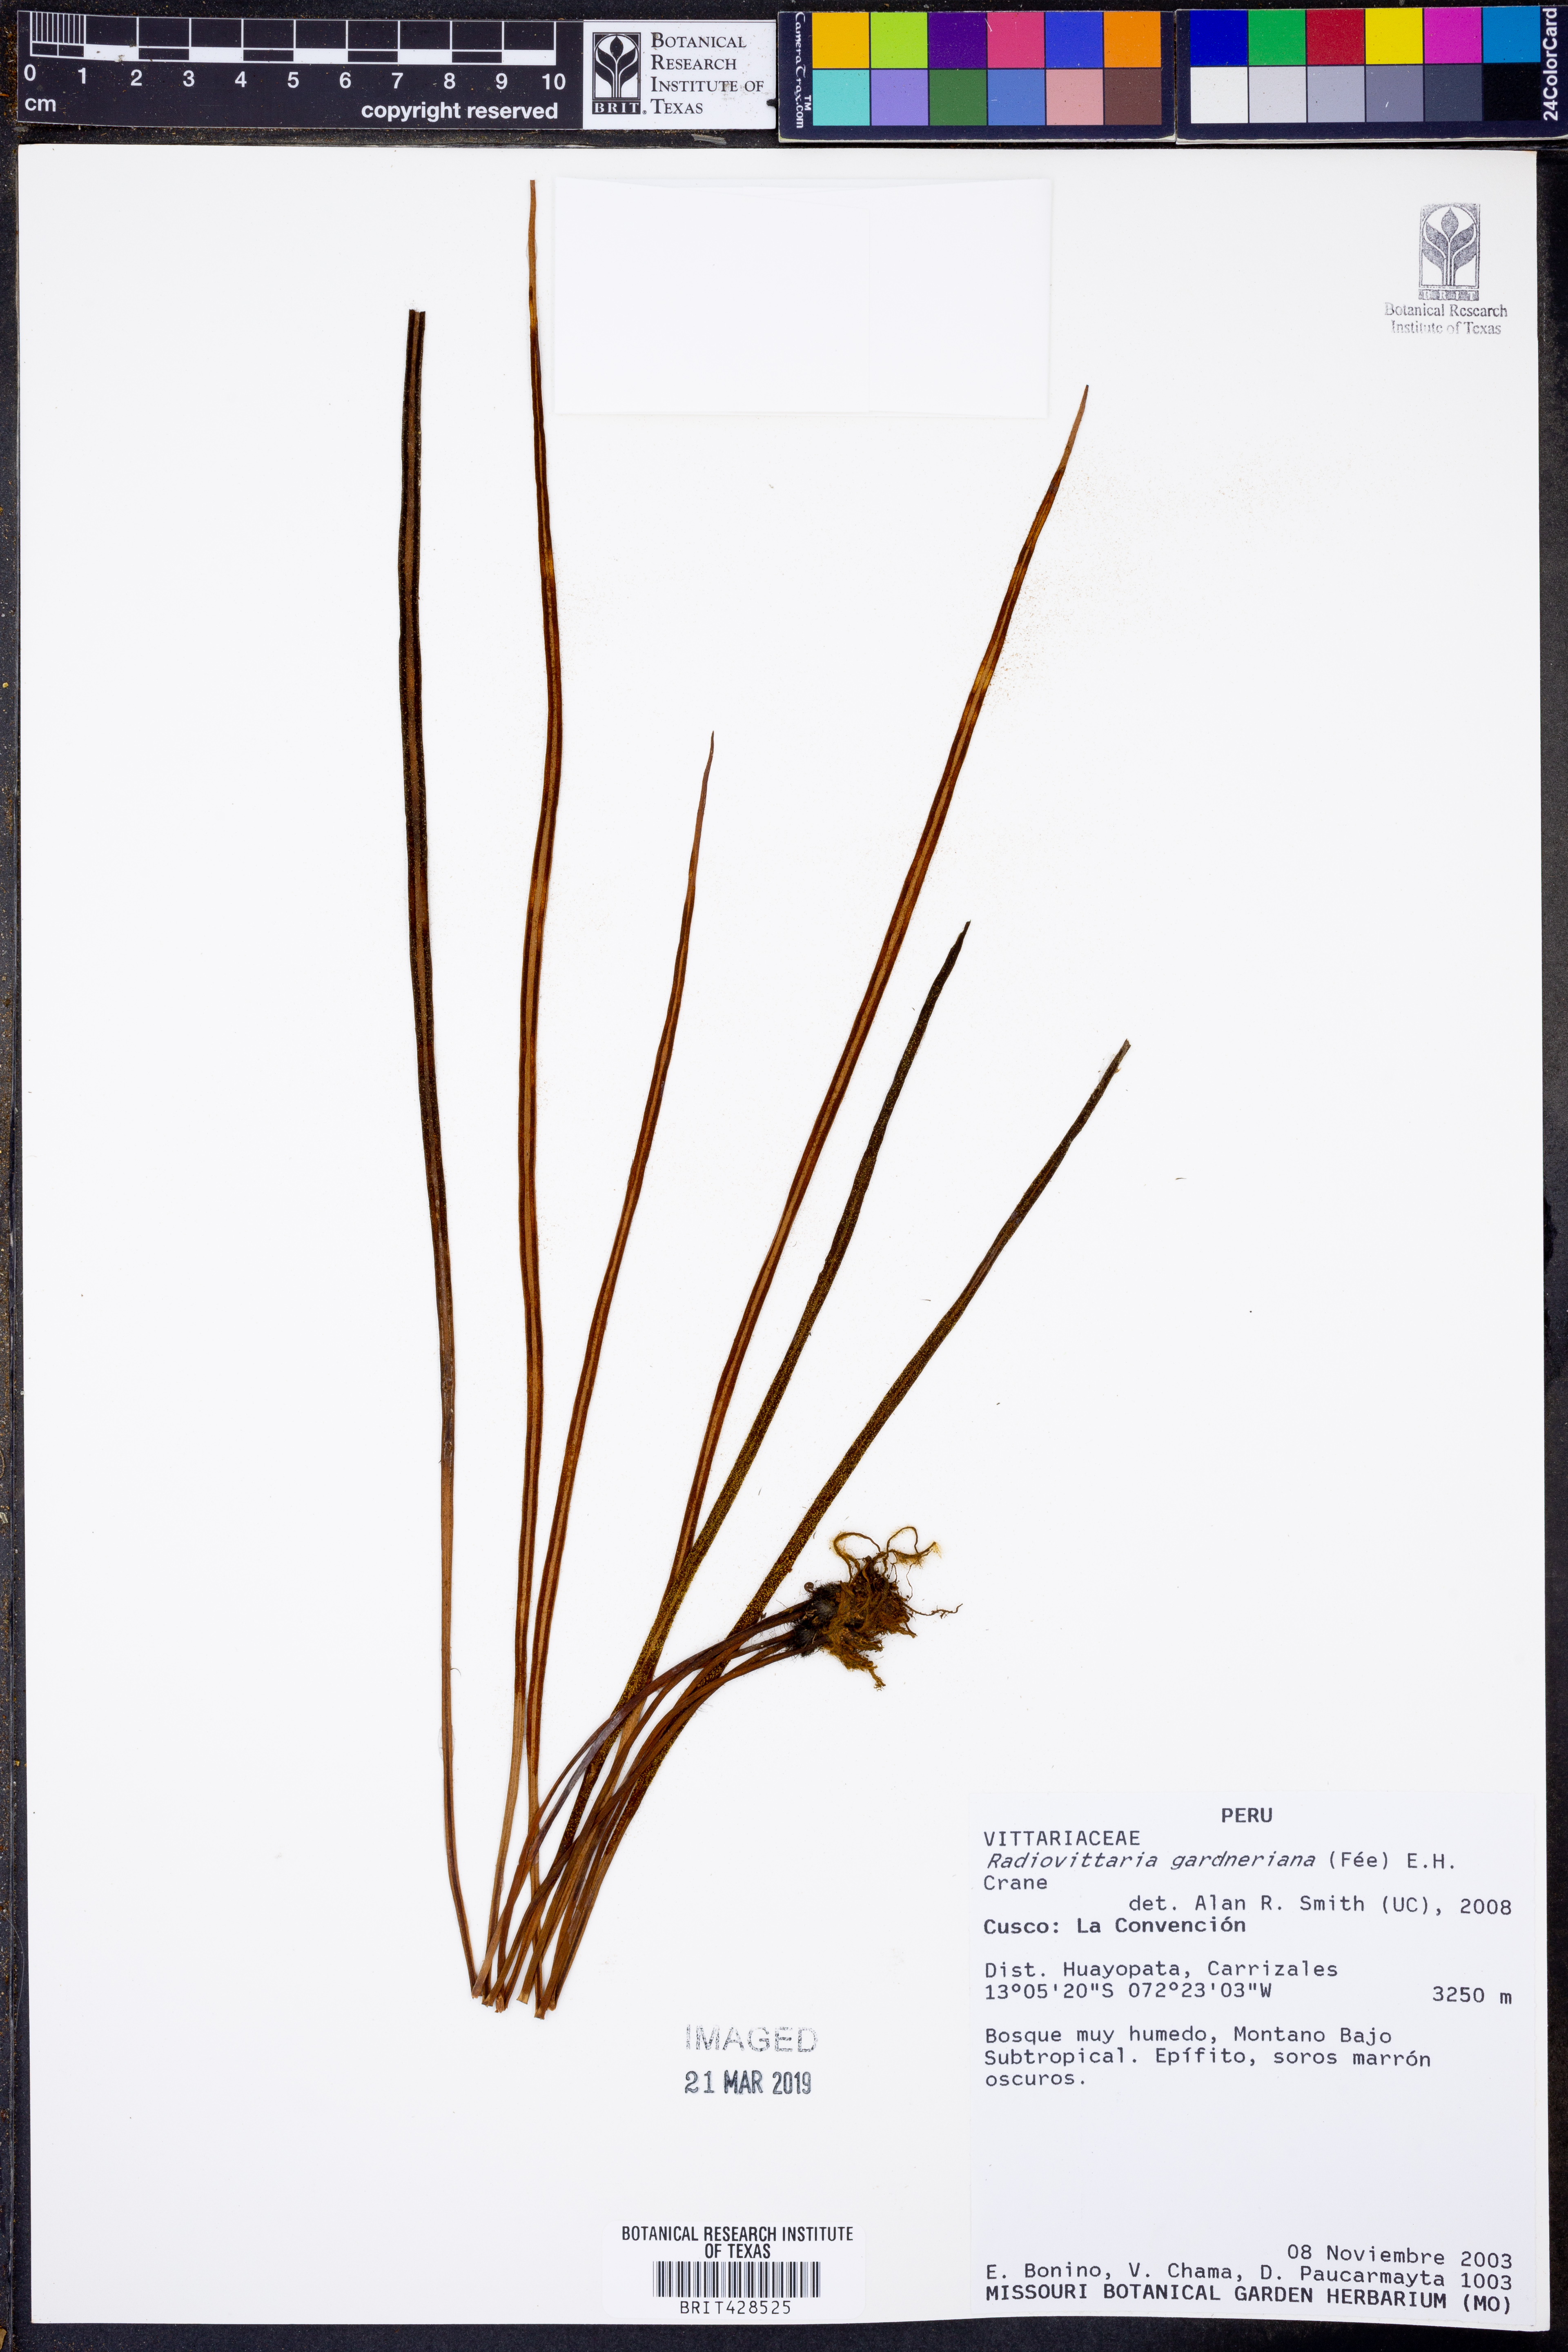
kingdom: Plantae
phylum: Tracheophyta
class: Polypodiopsida
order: Polypodiales
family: Pteridaceae
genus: Radiovittaria
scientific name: Radiovittaria gardneriana
